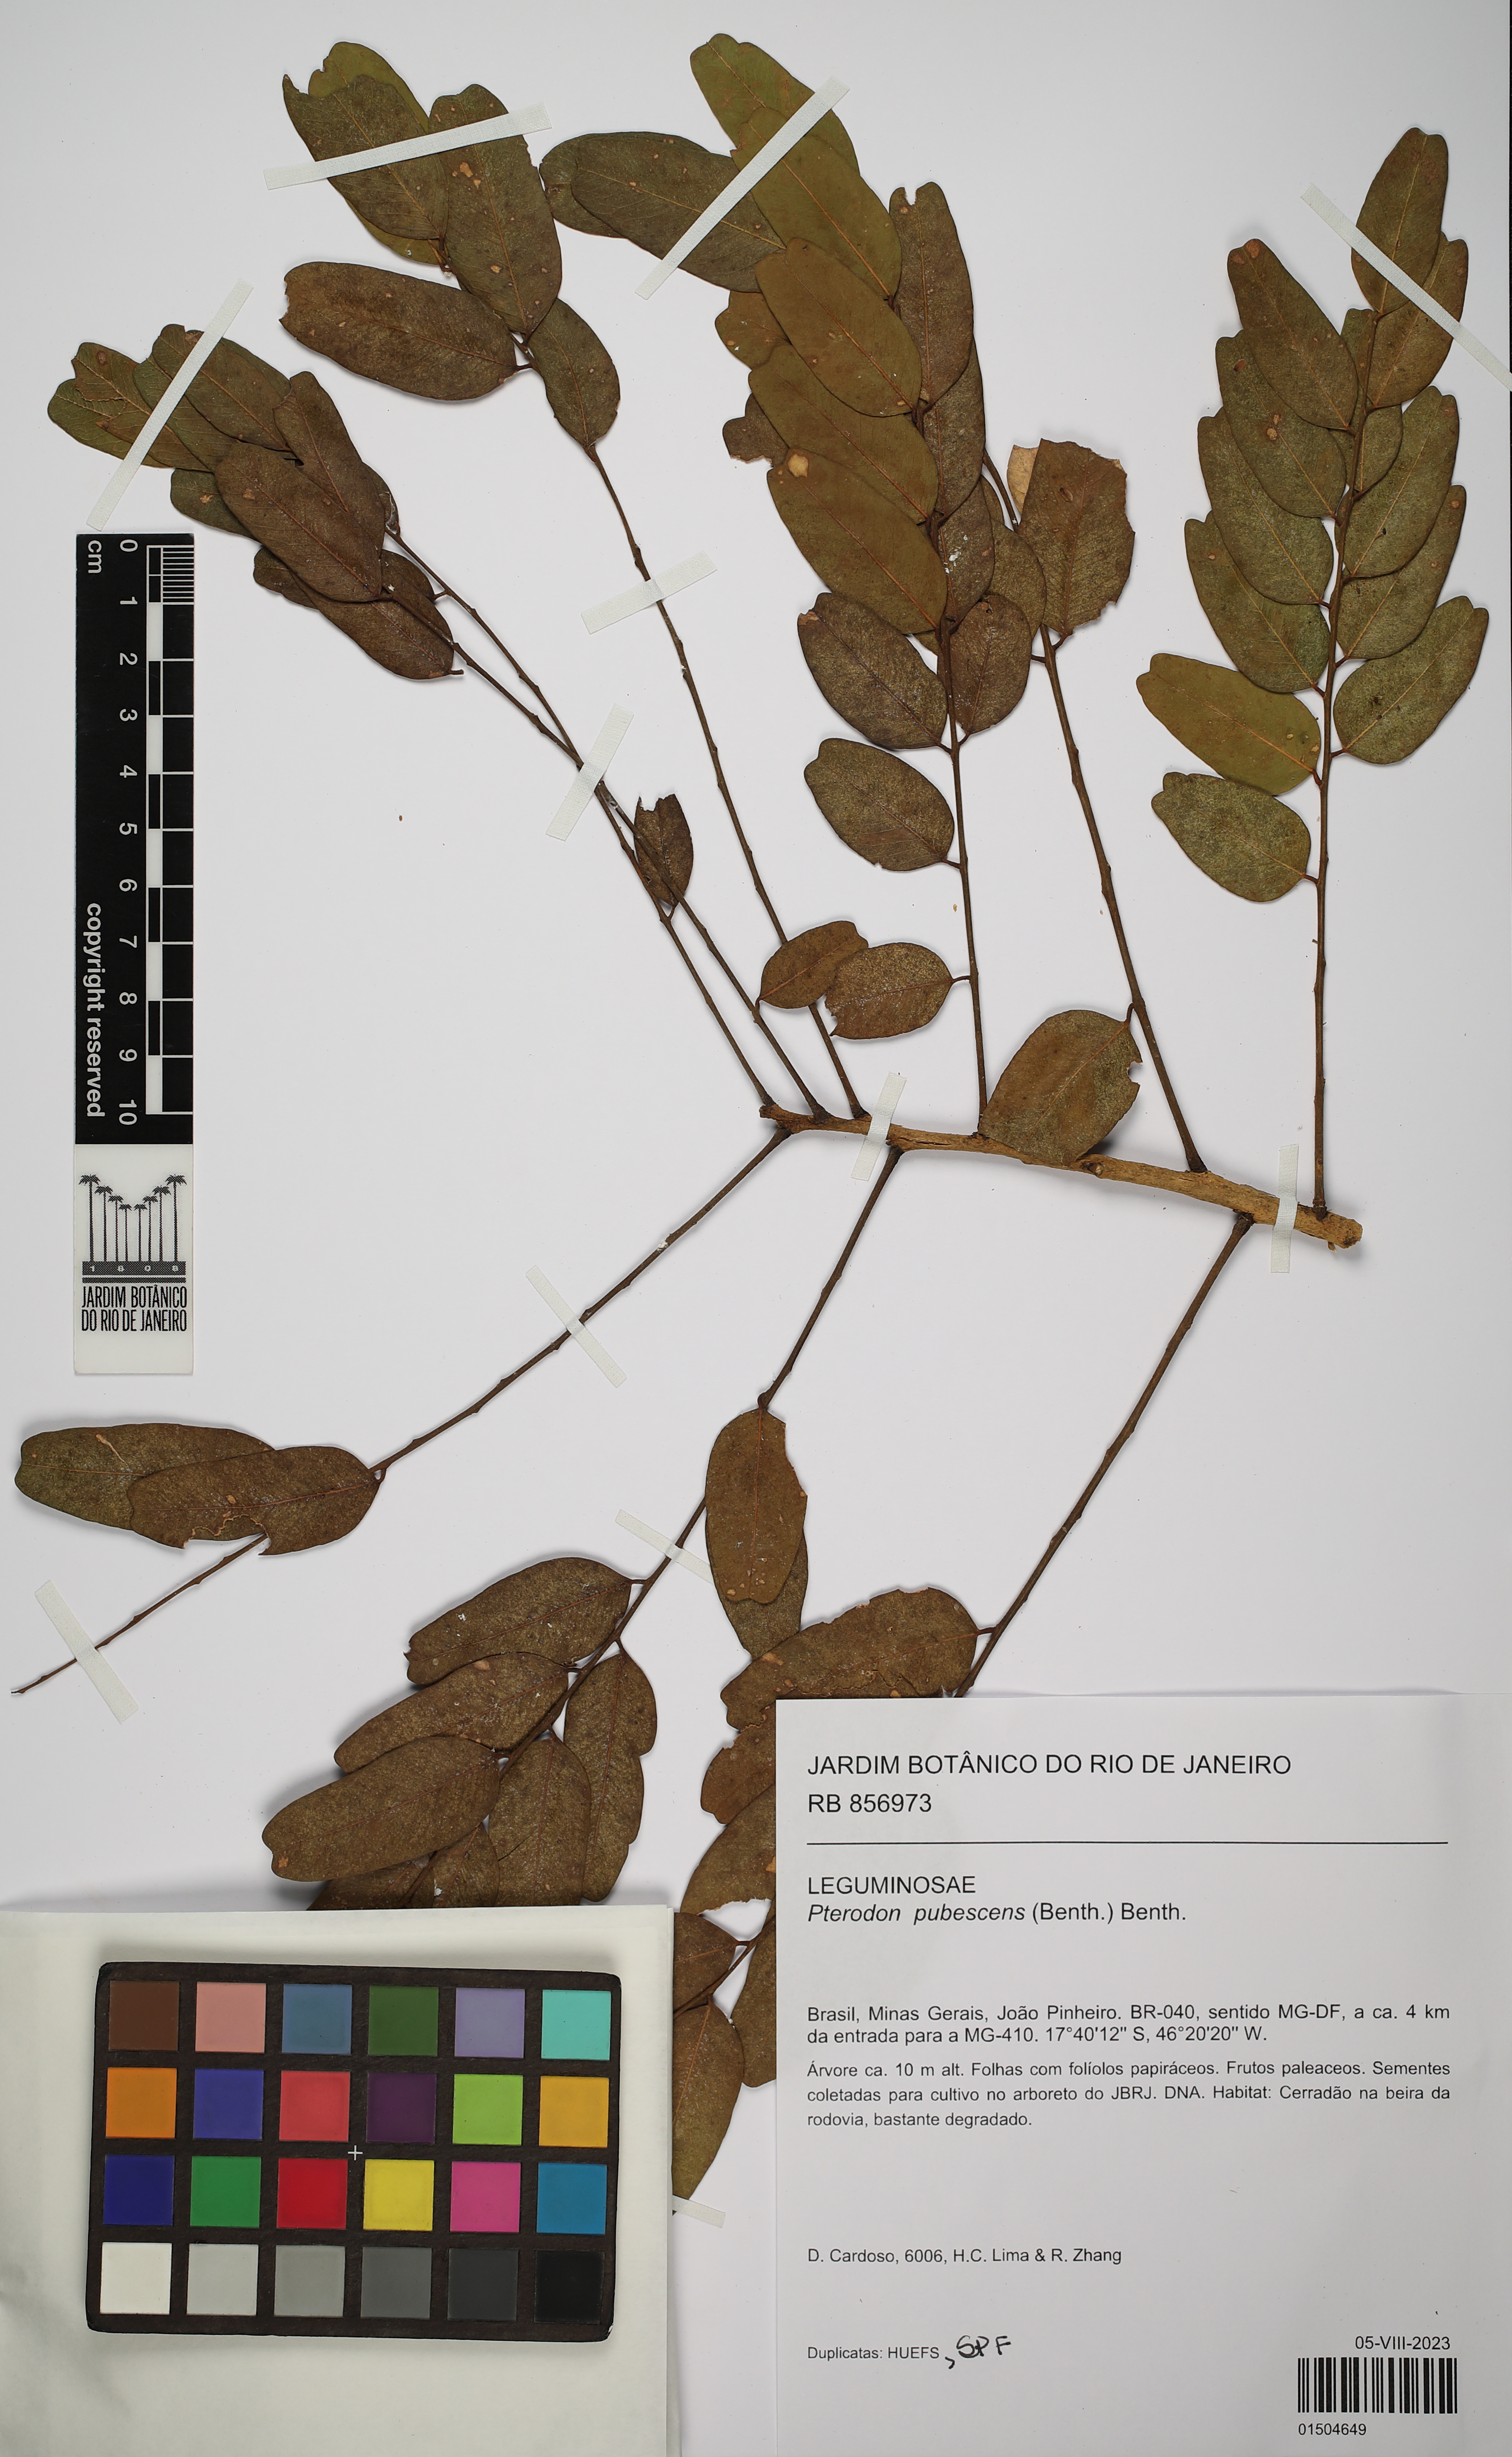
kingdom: Plantae
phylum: Tracheophyta
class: Magnoliopsida
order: Fabales
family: Fabaceae
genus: Pterodon
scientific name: Pterodon emarginatus
